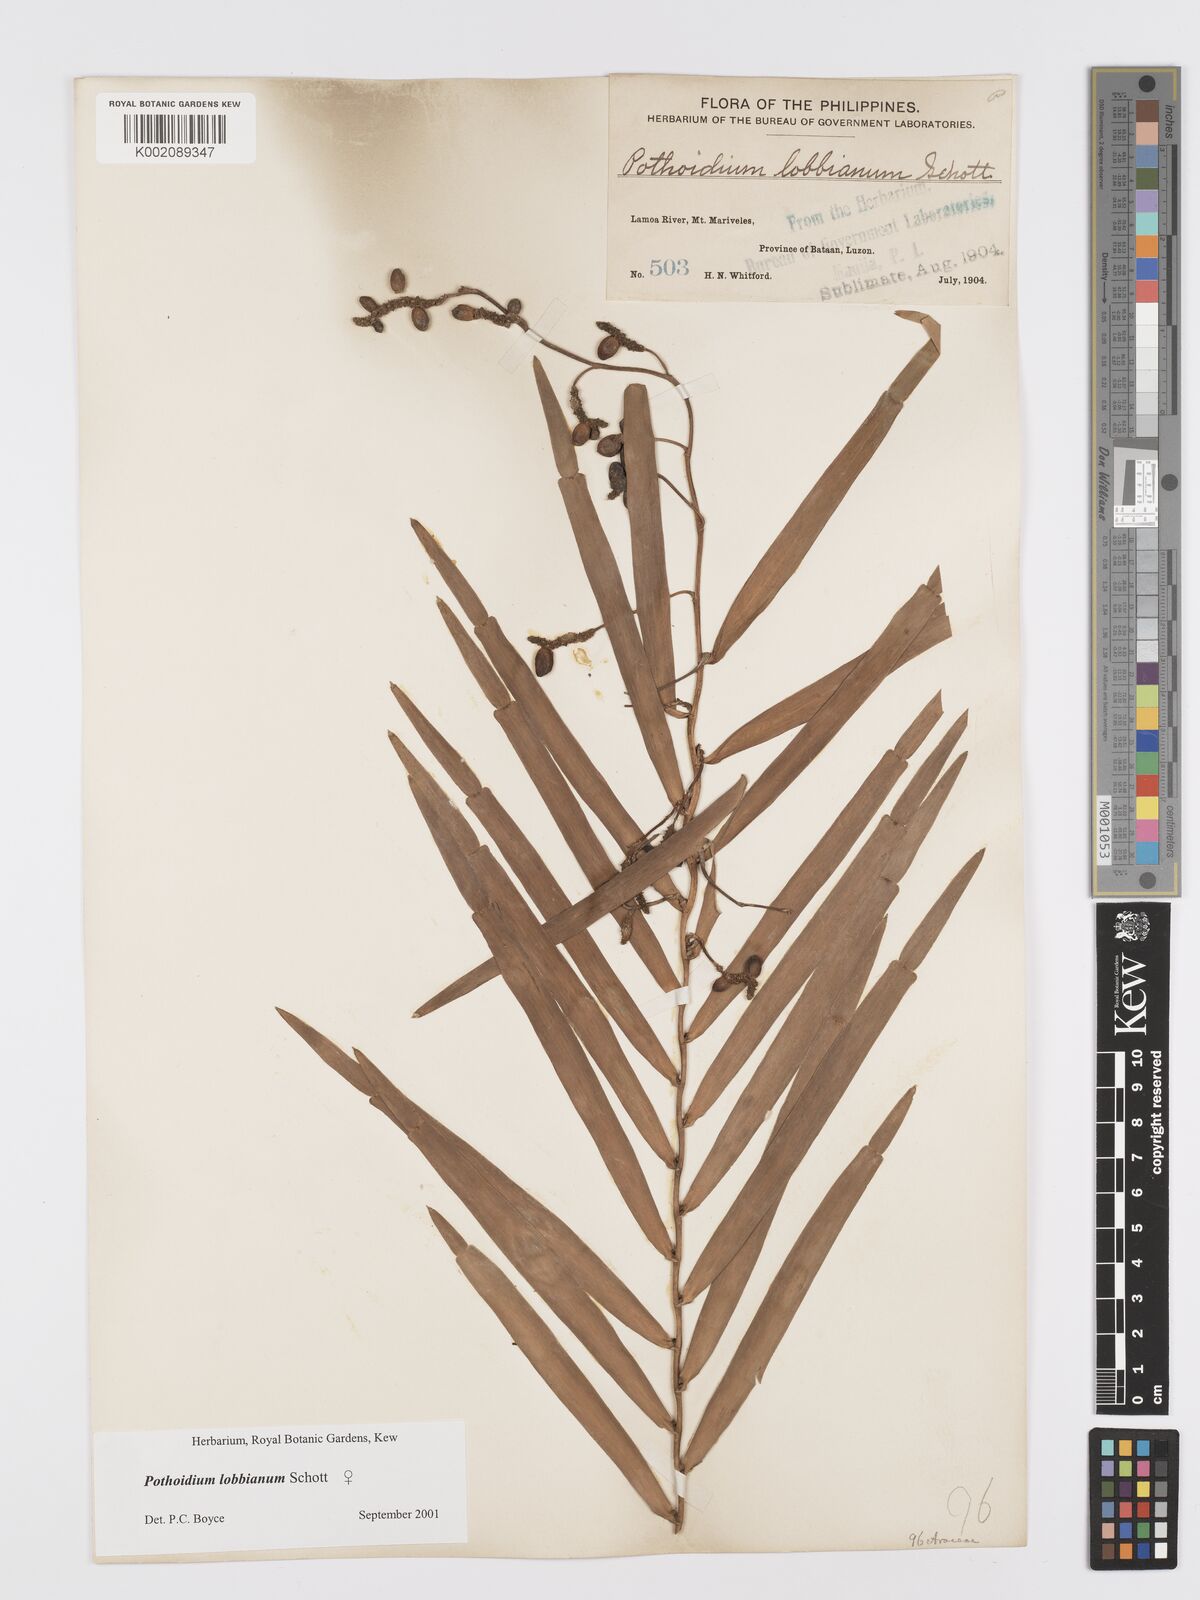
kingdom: Plantae
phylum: Tracheophyta
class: Liliopsida
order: Alismatales
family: Araceae
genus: Pothoidium
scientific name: Pothoidium lobbianum
